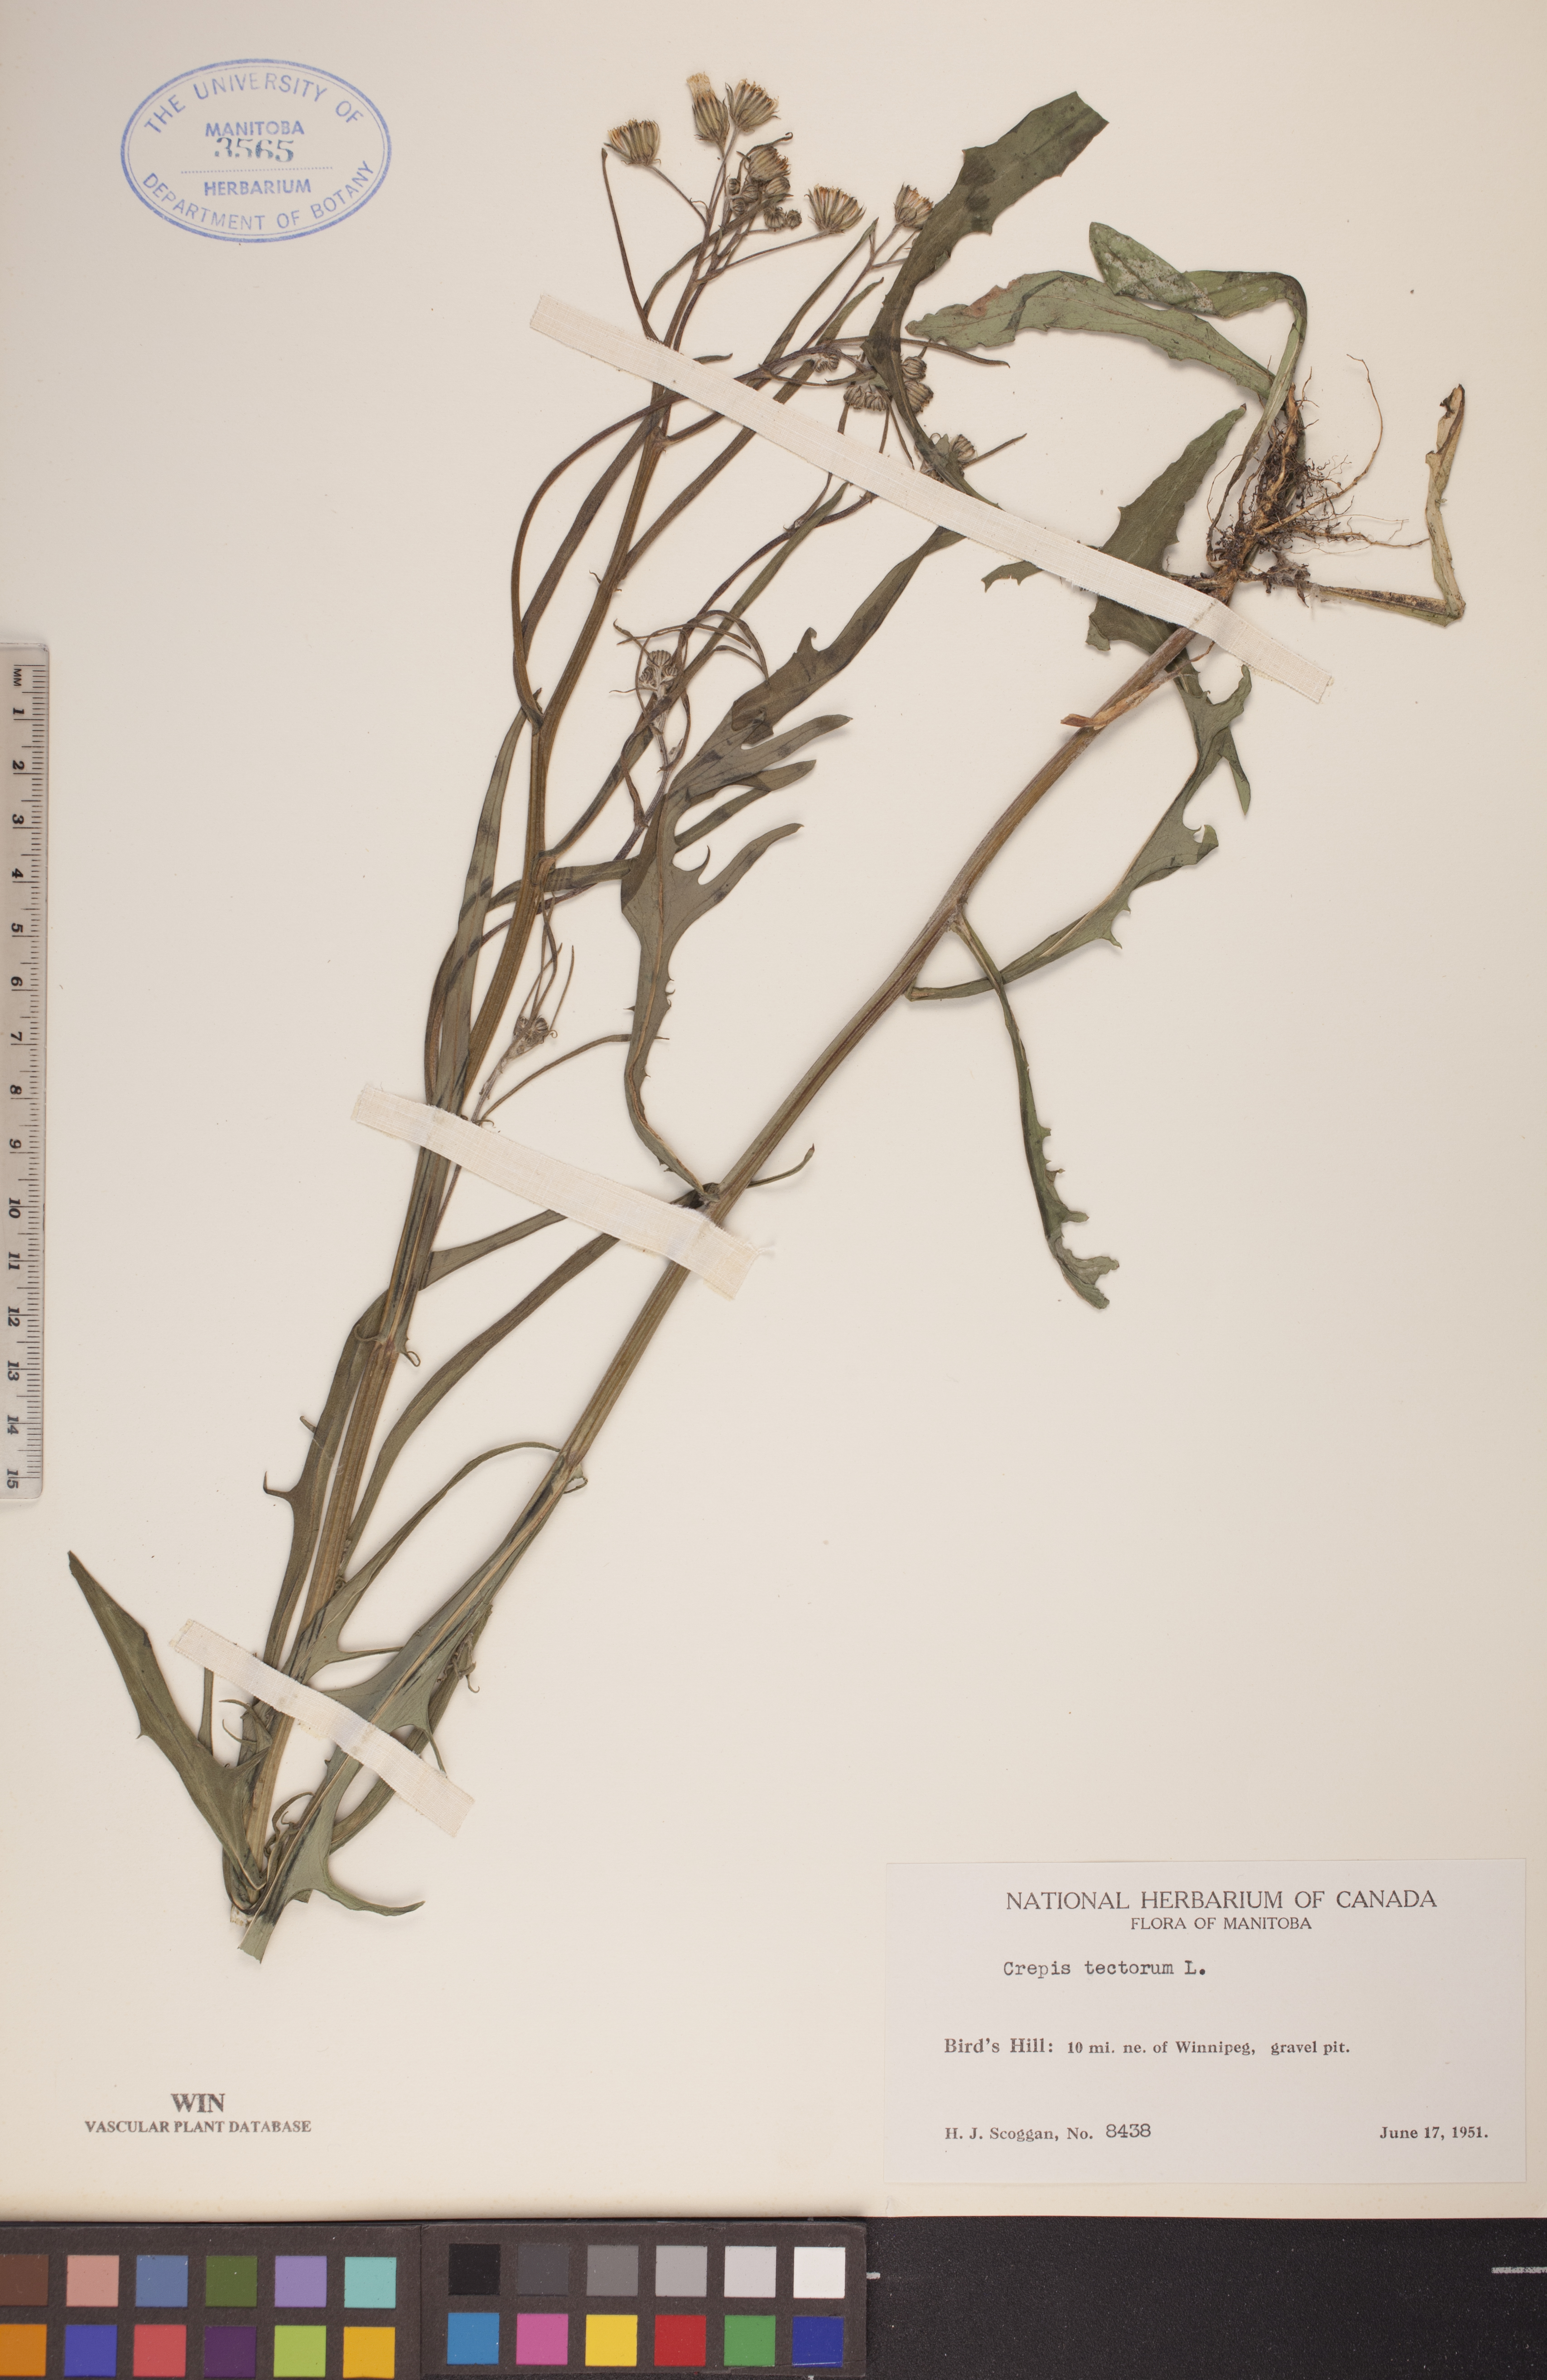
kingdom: Plantae
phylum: Tracheophyta
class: Magnoliopsida
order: Asterales
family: Asteraceae
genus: Crepis
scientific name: Crepis tectorum
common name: Narrow-leaved hawk's-beard
